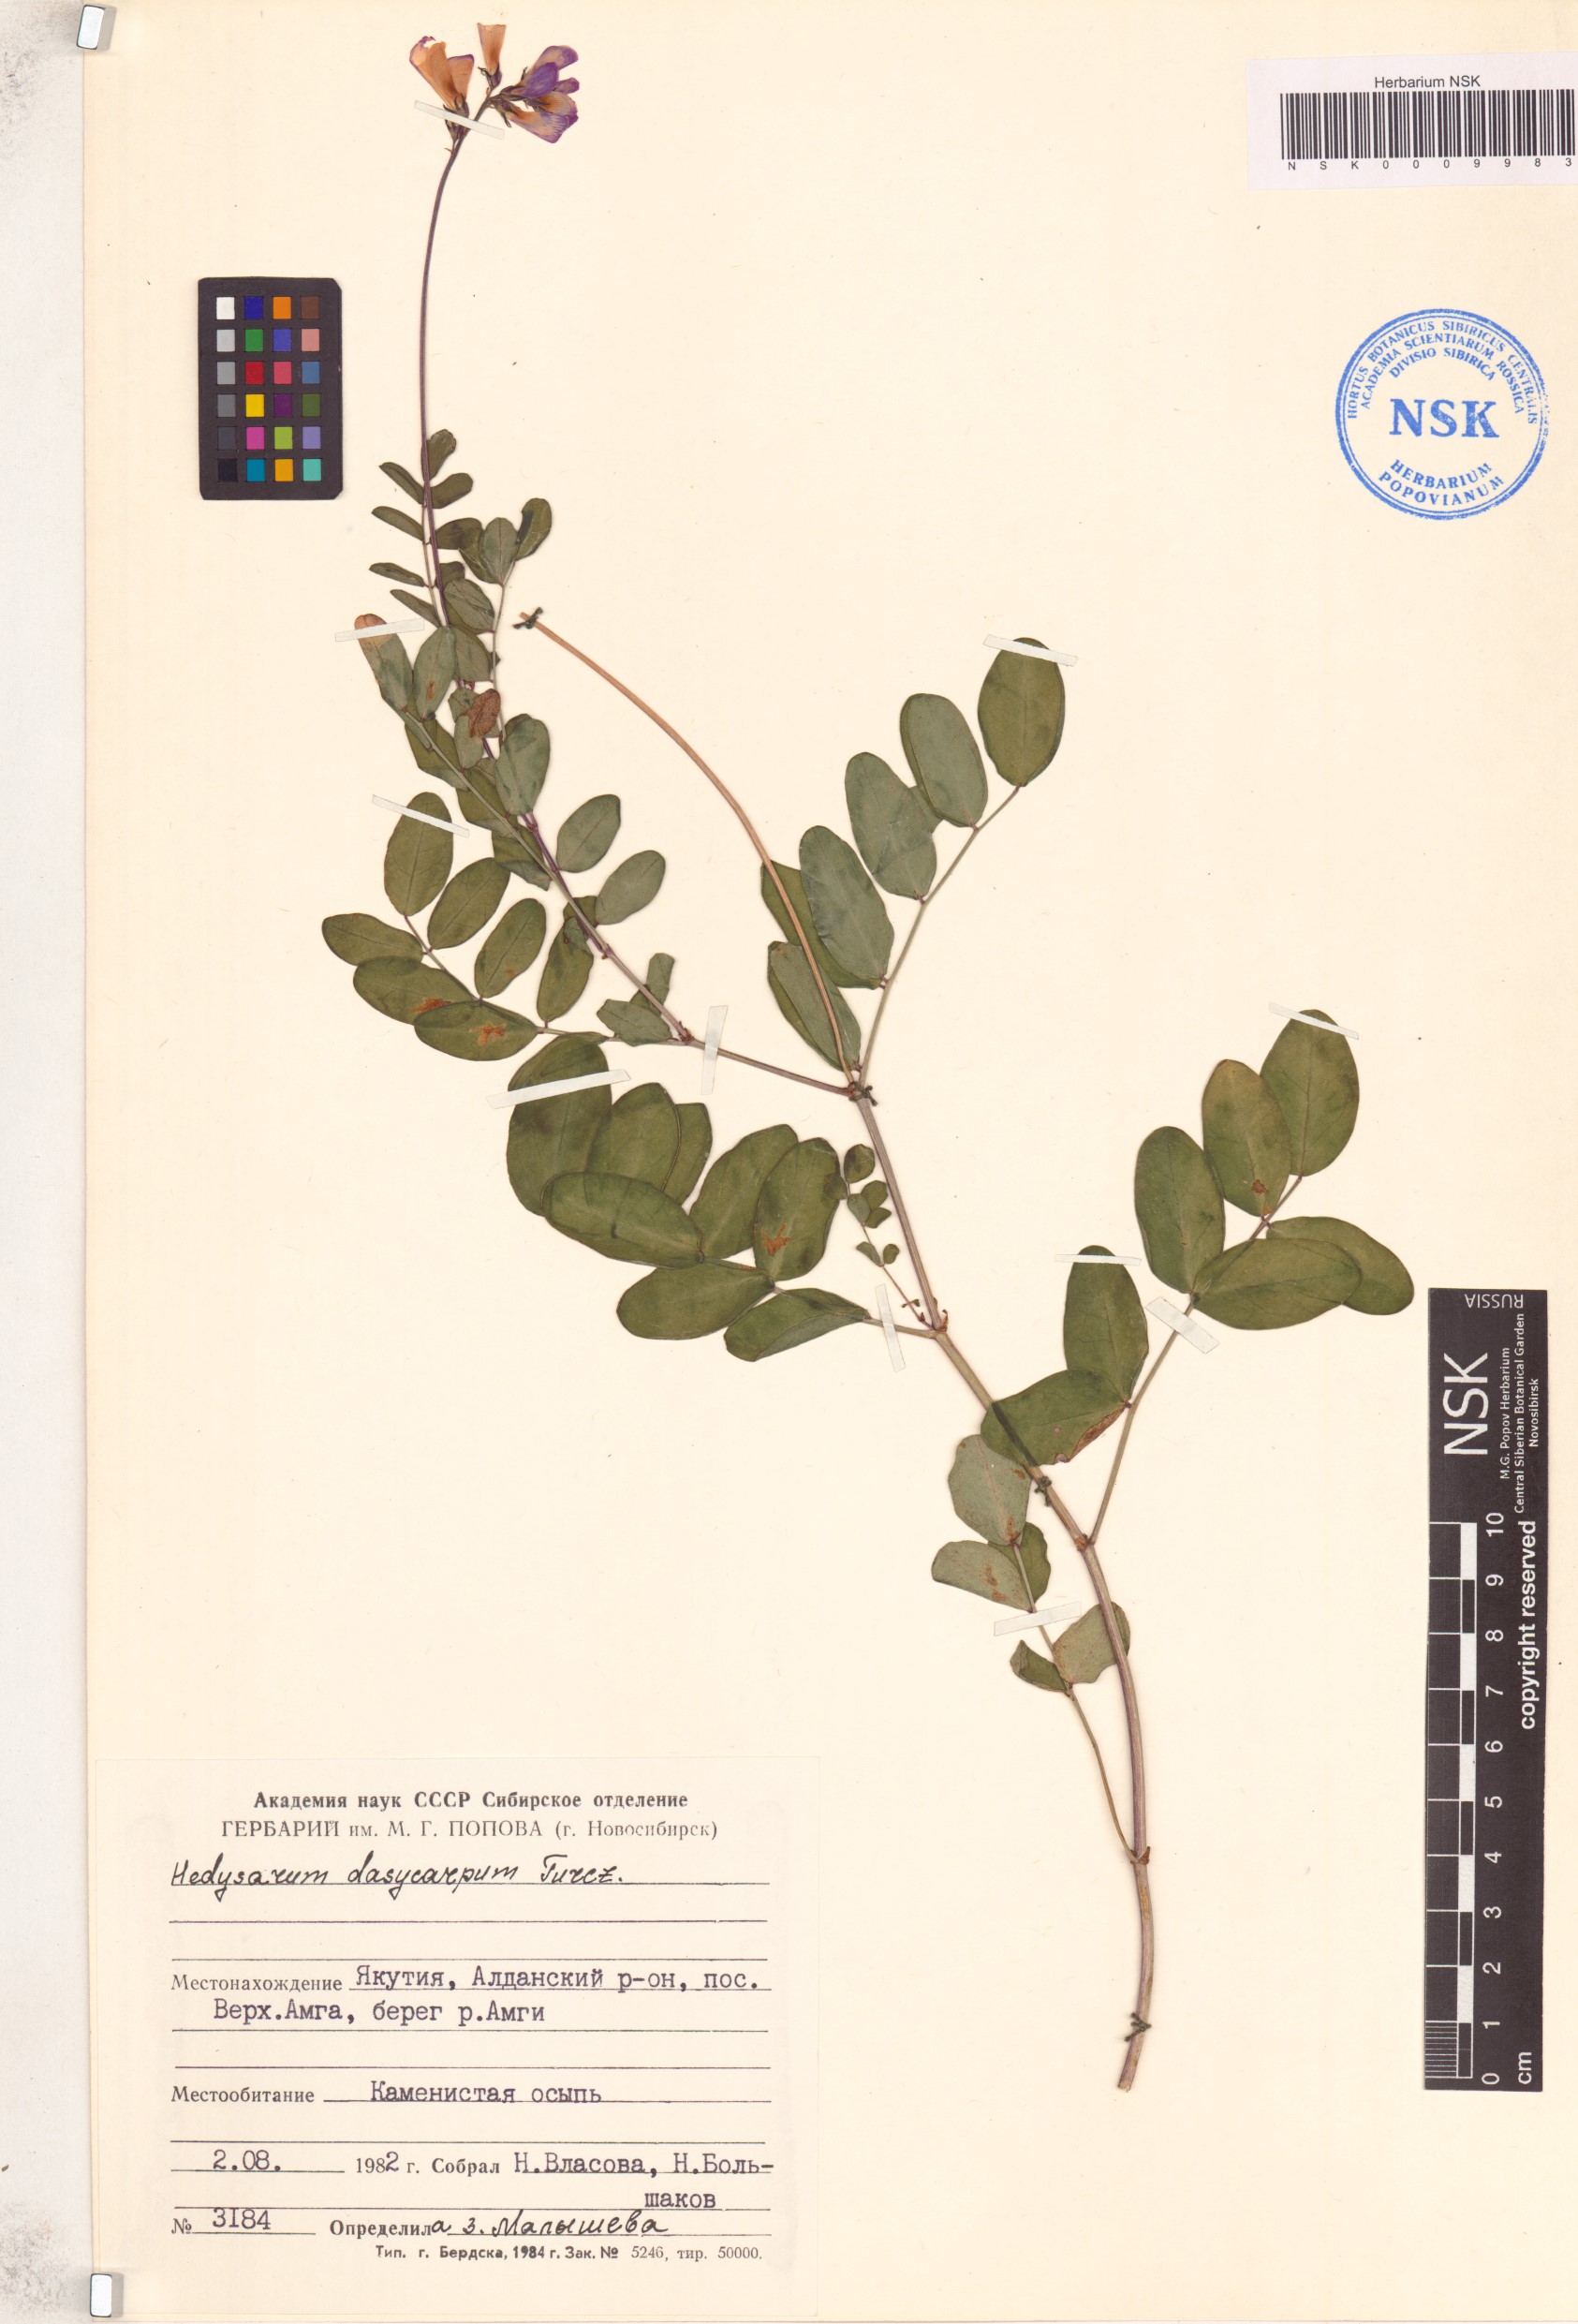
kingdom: Plantae
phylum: Tracheophyta
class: Magnoliopsida
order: Fabales
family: Fabaceae
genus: Hedysarum
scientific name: Hedysarum dasycarpum
